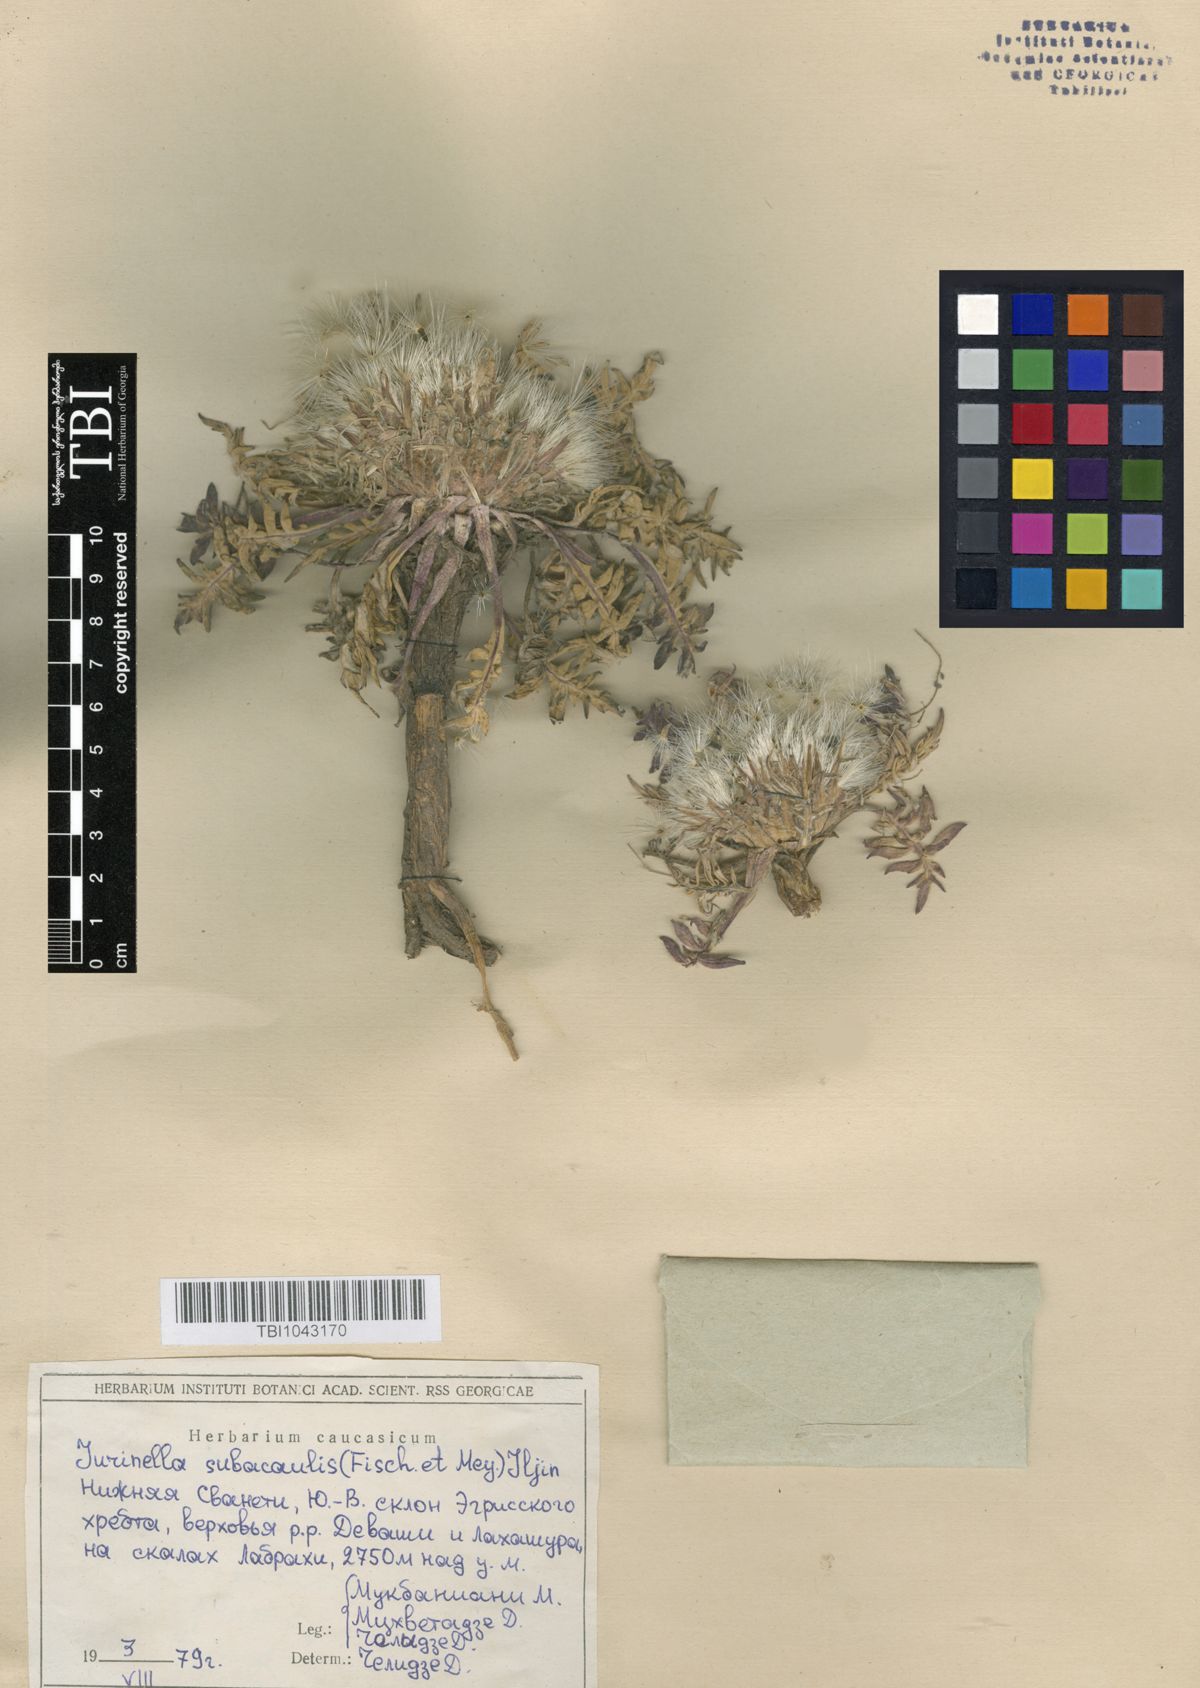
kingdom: Plantae
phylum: Tracheophyta
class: Magnoliopsida
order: Asterales
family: Asteraceae
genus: Jurinea
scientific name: Jurinea moschus
